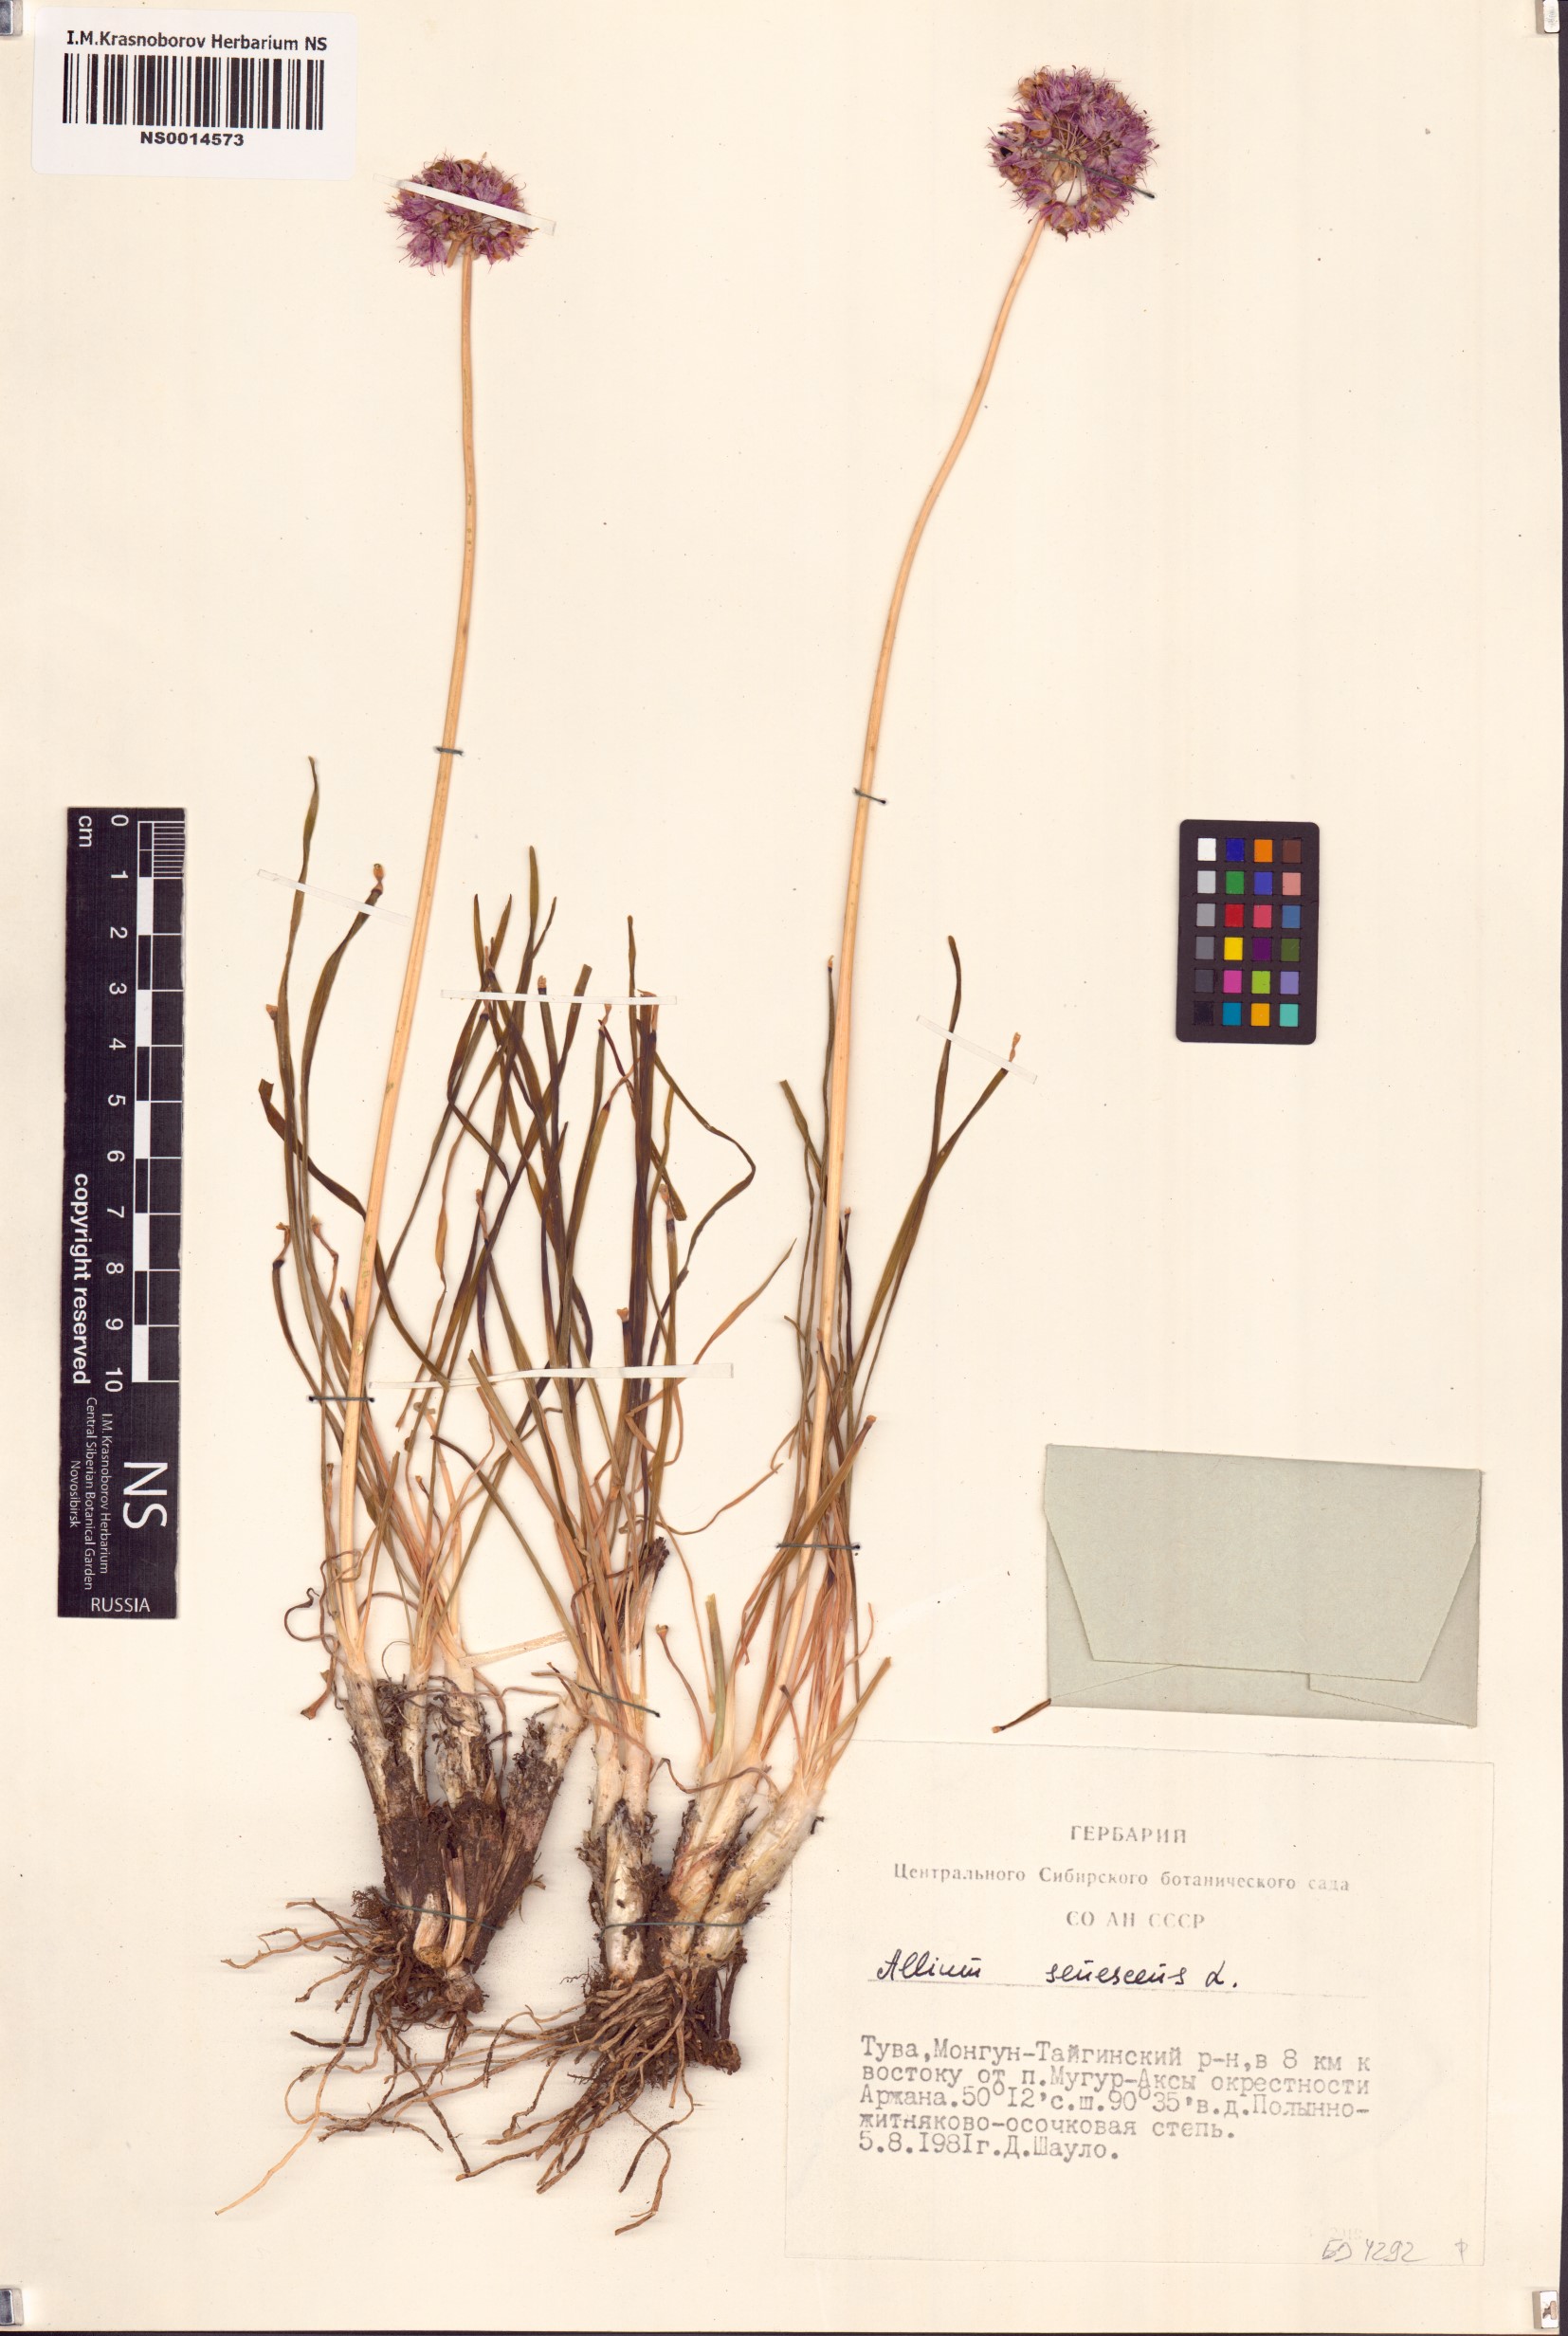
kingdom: Plantae
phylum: Tracheophyta
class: Liliopsida
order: Asparagales
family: Amaryllidaceae
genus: Allium
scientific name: Allium senescens
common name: German garlic
